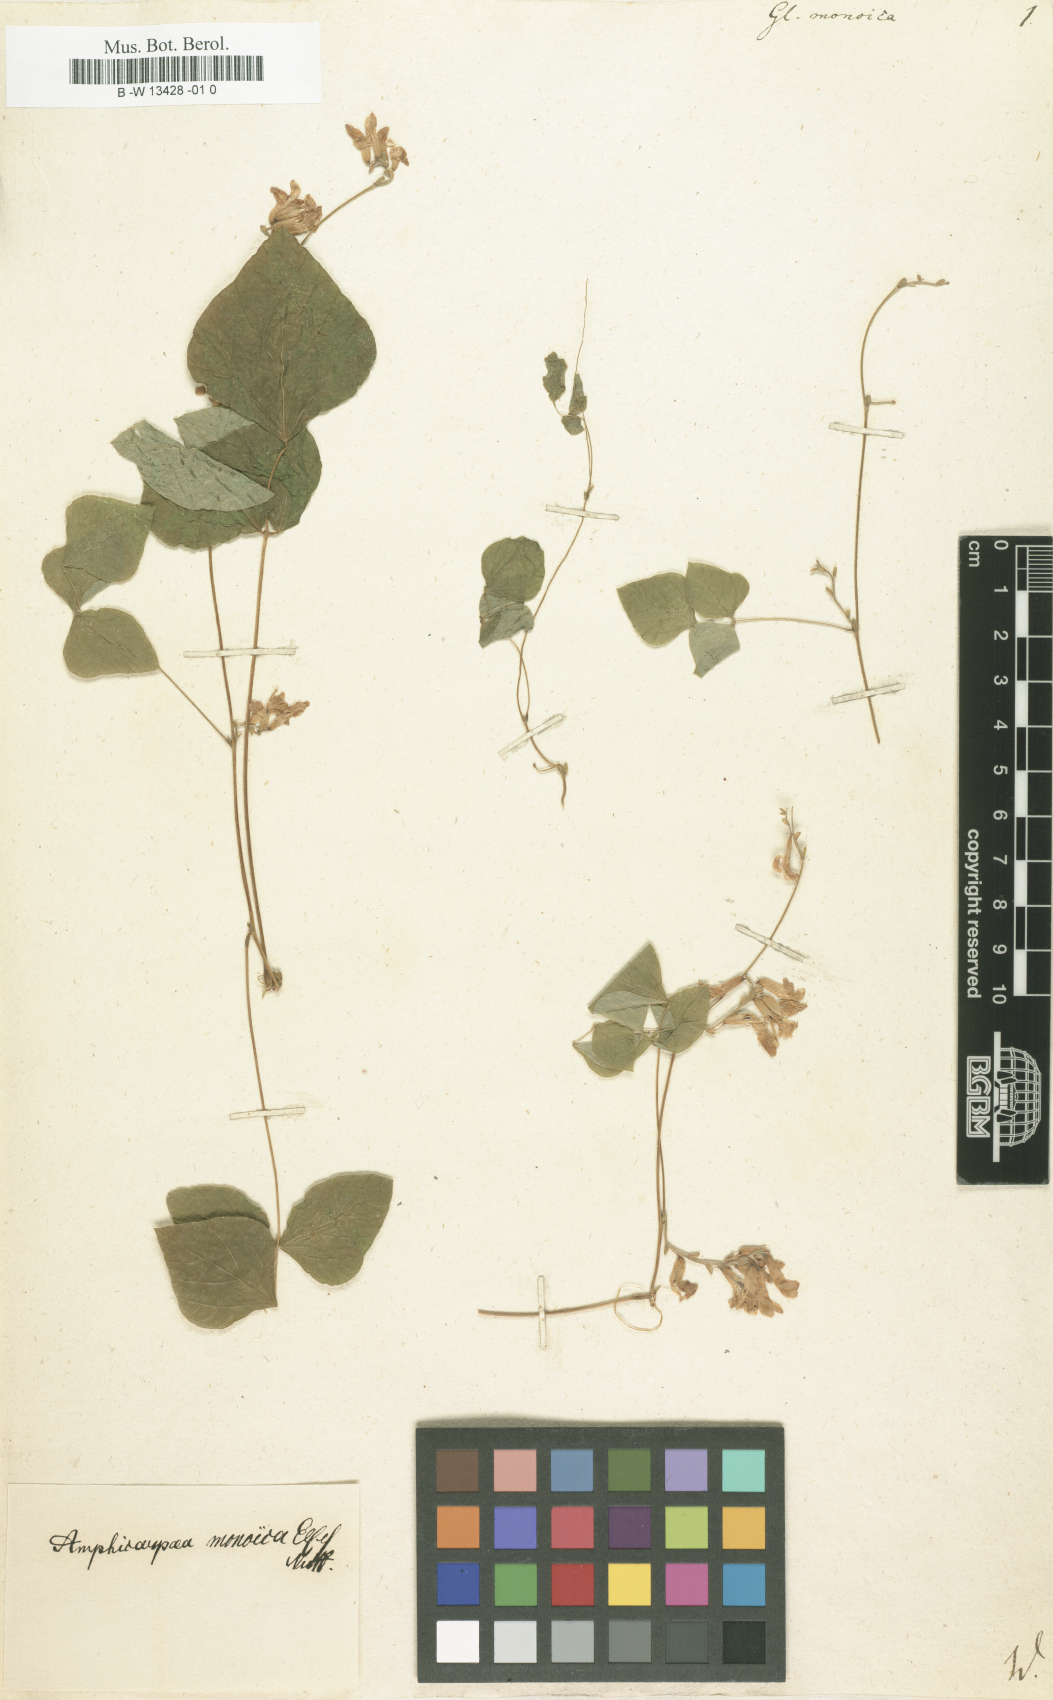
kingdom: Plantae
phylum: Tracheophyta
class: Magnoliopsida
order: Fabales
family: Fabaceae
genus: Amphicarpaea
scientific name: Amphicarpaea bracteata
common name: American hog peanut
